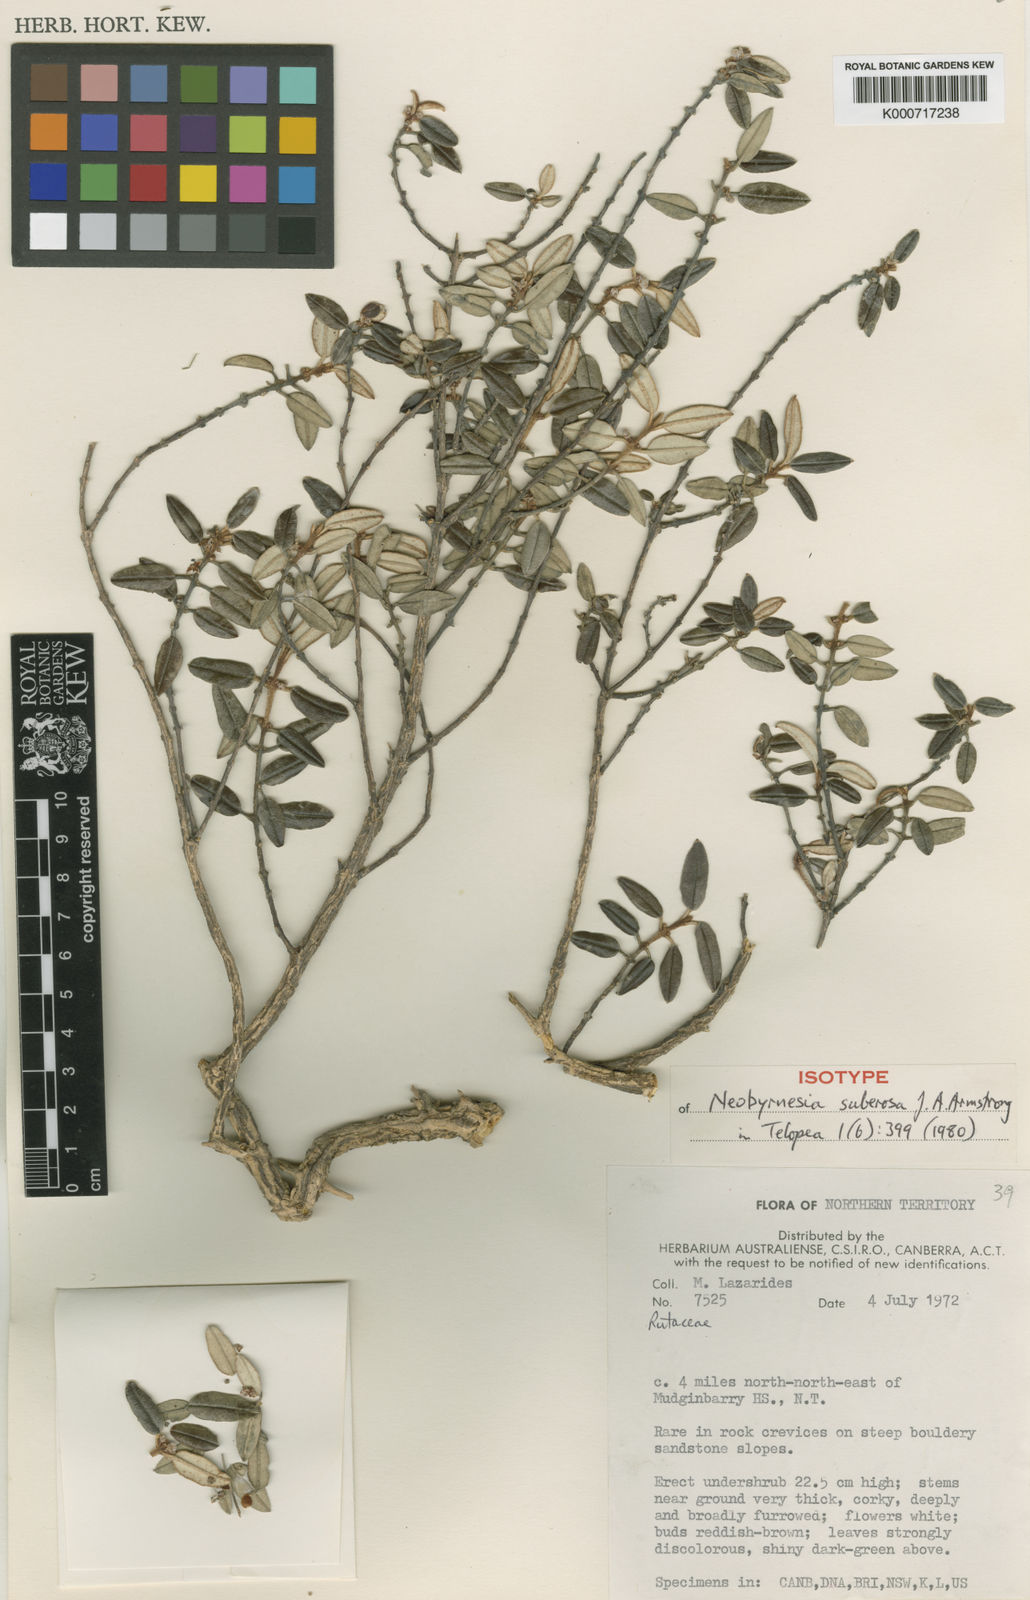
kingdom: Plantae
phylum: Tracheophyta
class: Magnoliopsida
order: Sapindales
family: Rutaceae
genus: Neobyrnesia
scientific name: Neobyrnesia suberosa
